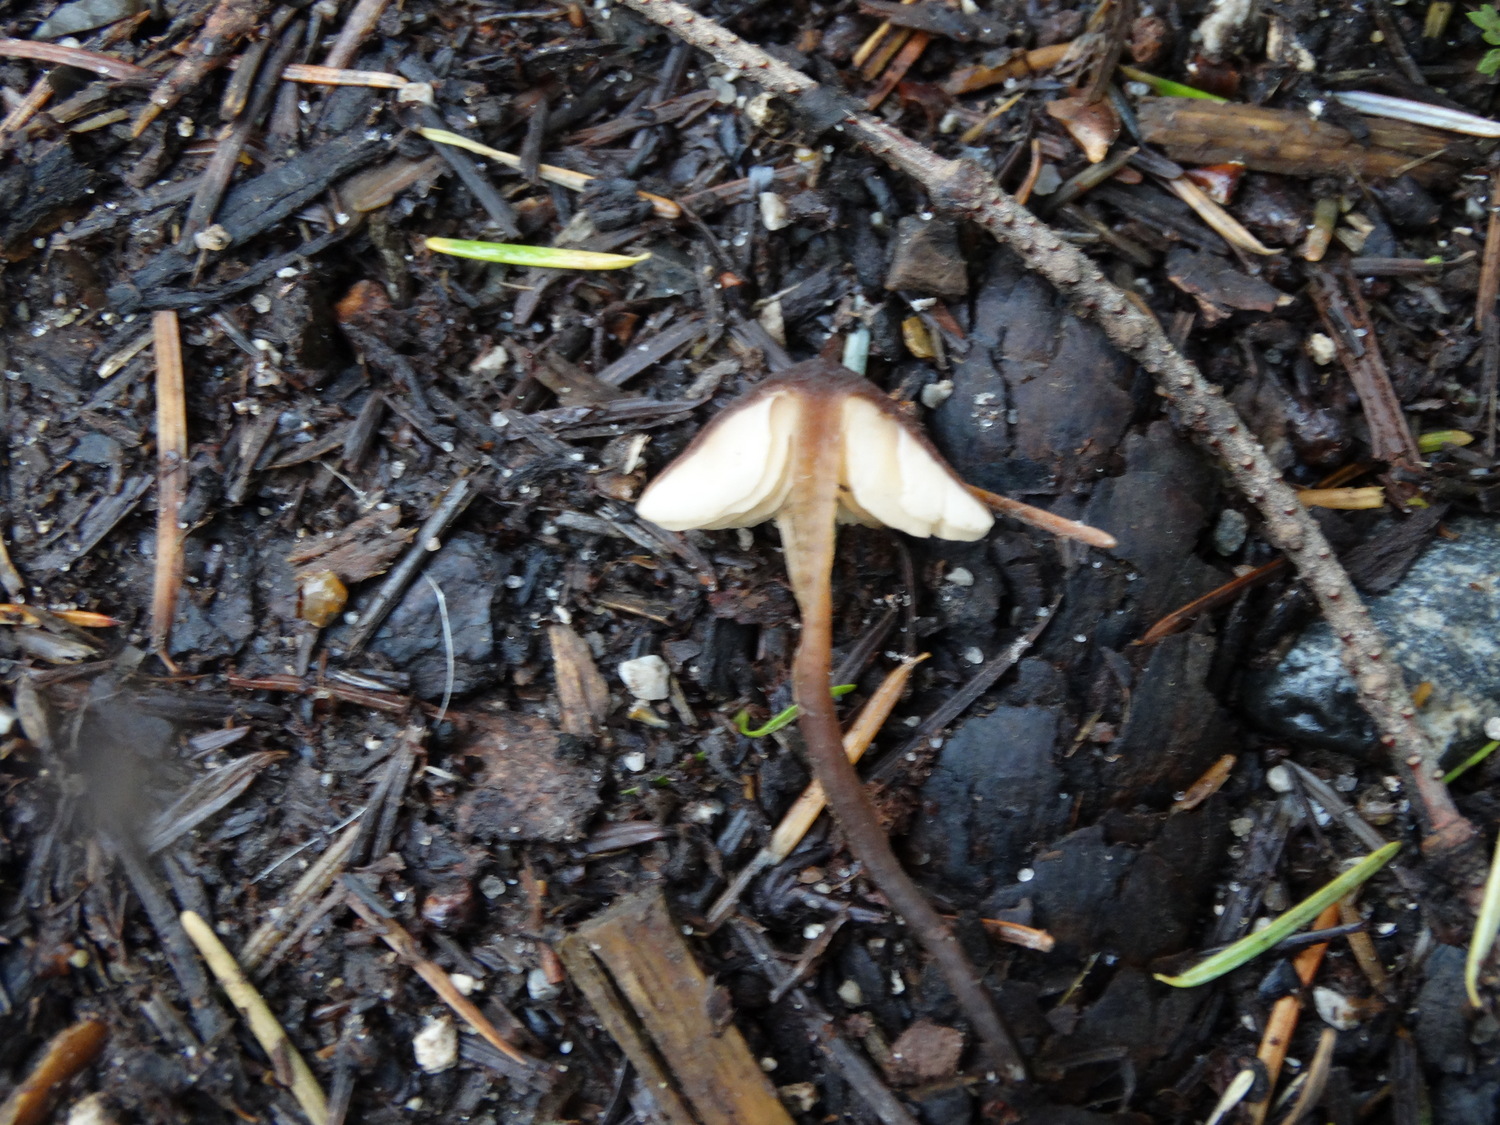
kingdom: Fungi
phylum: Basidiomycota
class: Agaricomycetes
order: Agaricales
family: Macrocystidiaceae
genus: Macrocystidia
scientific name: Macrocystidia cucumis
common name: agurkehat
